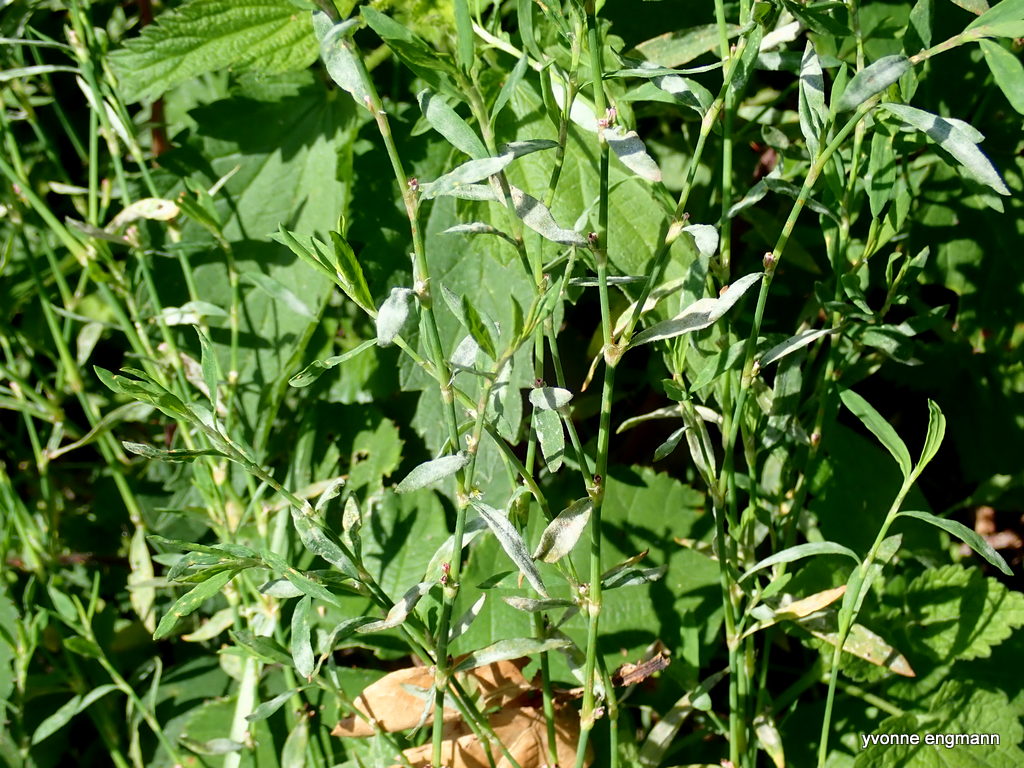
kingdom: Fungi
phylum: Ascomycota
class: Leotiomycetes
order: Helotiales
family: Erysiphaceae
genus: Erysiphe
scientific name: Erysiphe polygoni
